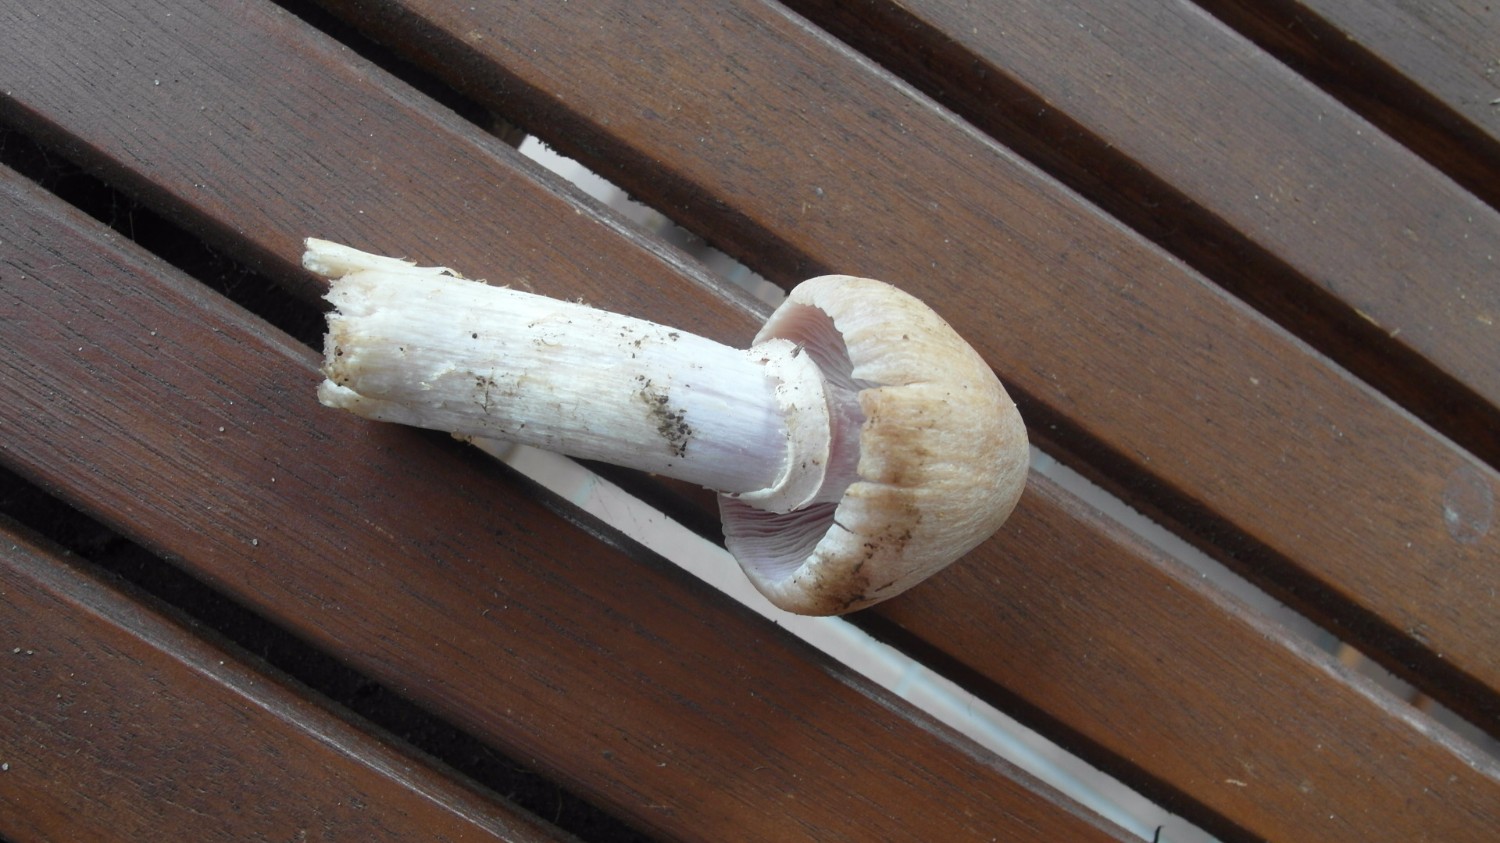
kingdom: Fungi
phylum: Basidiomycota
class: Agaricomycetes
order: Agaricales
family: Cortinariaceae
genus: Cortinarius
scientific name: Cortinarius caperatus
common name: klidhat
